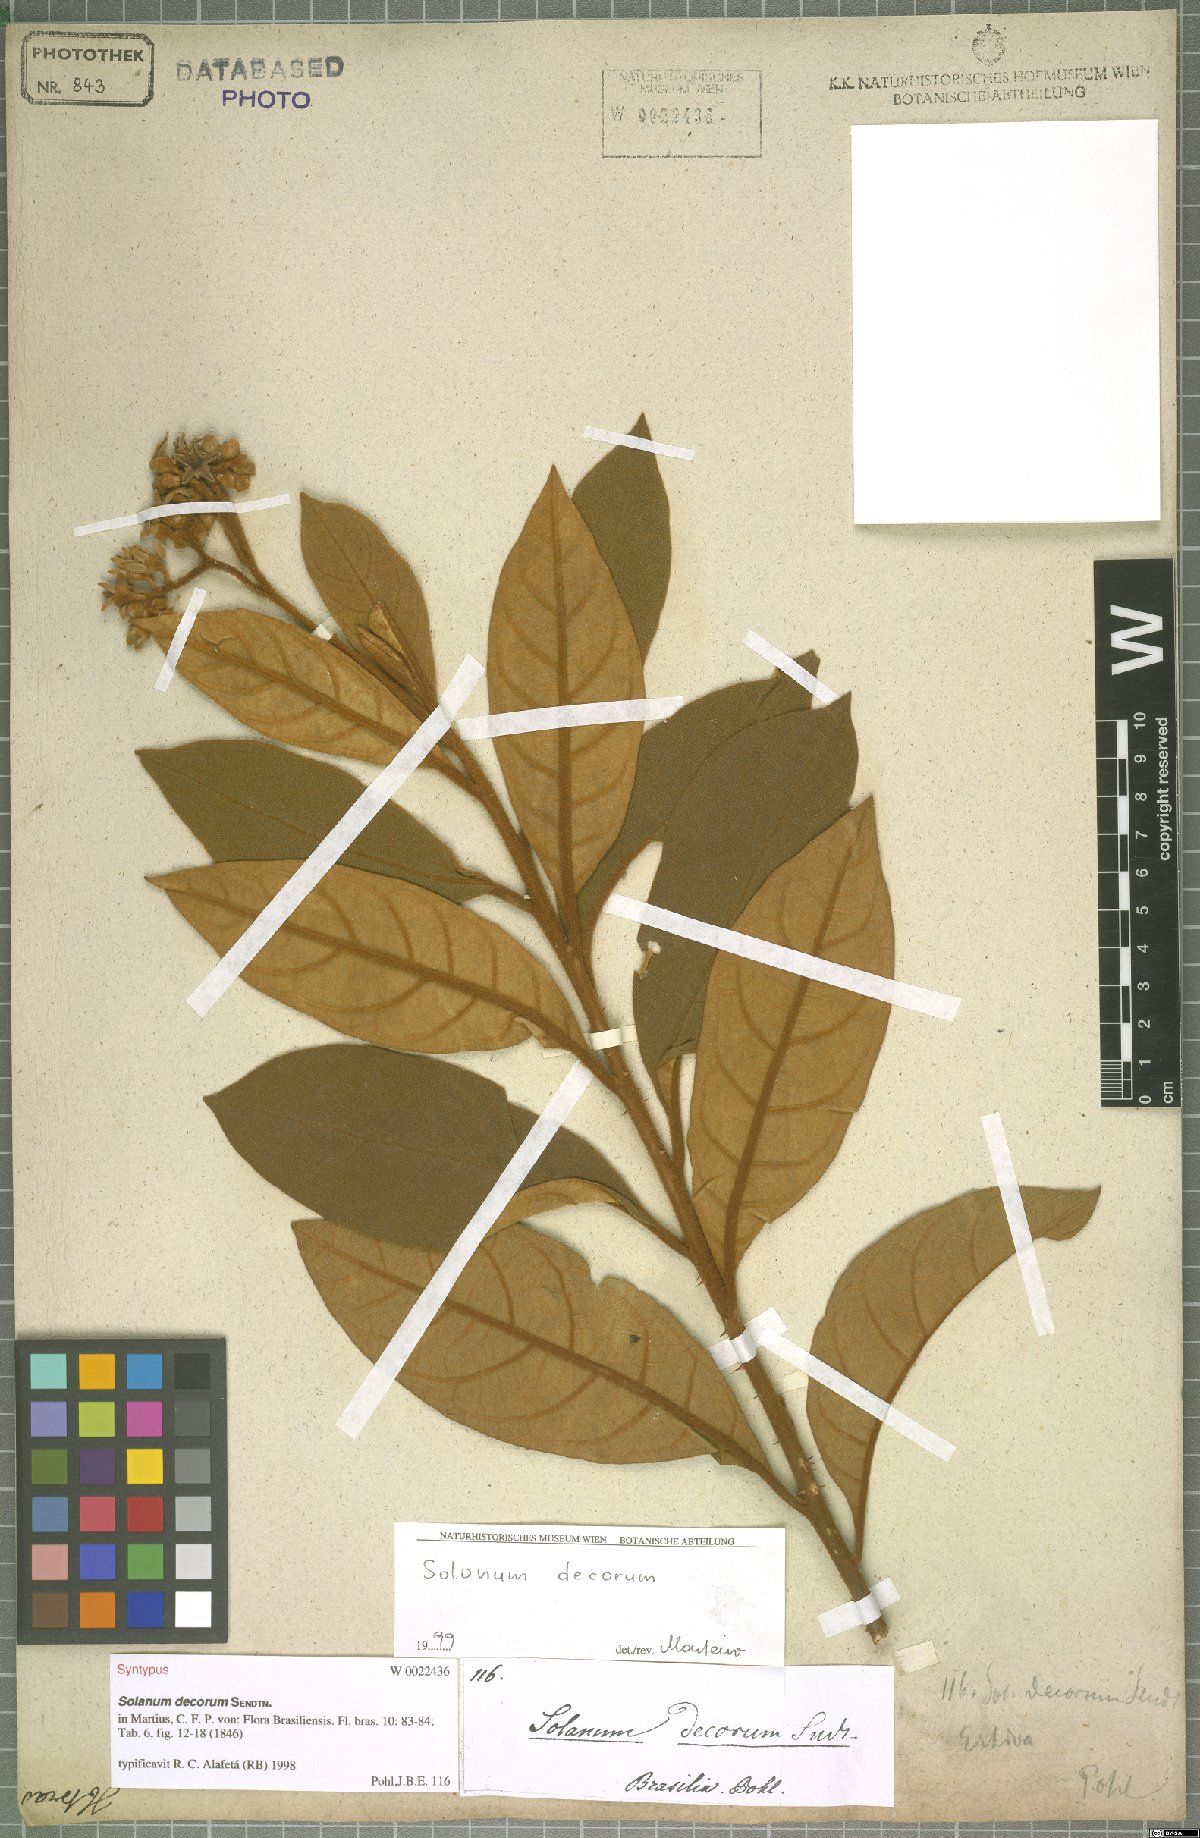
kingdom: Plantae
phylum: Tracheophyta
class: Magnoliopsida
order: Solanales
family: Solanaceae
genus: Solanum
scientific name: Solanum decorum
